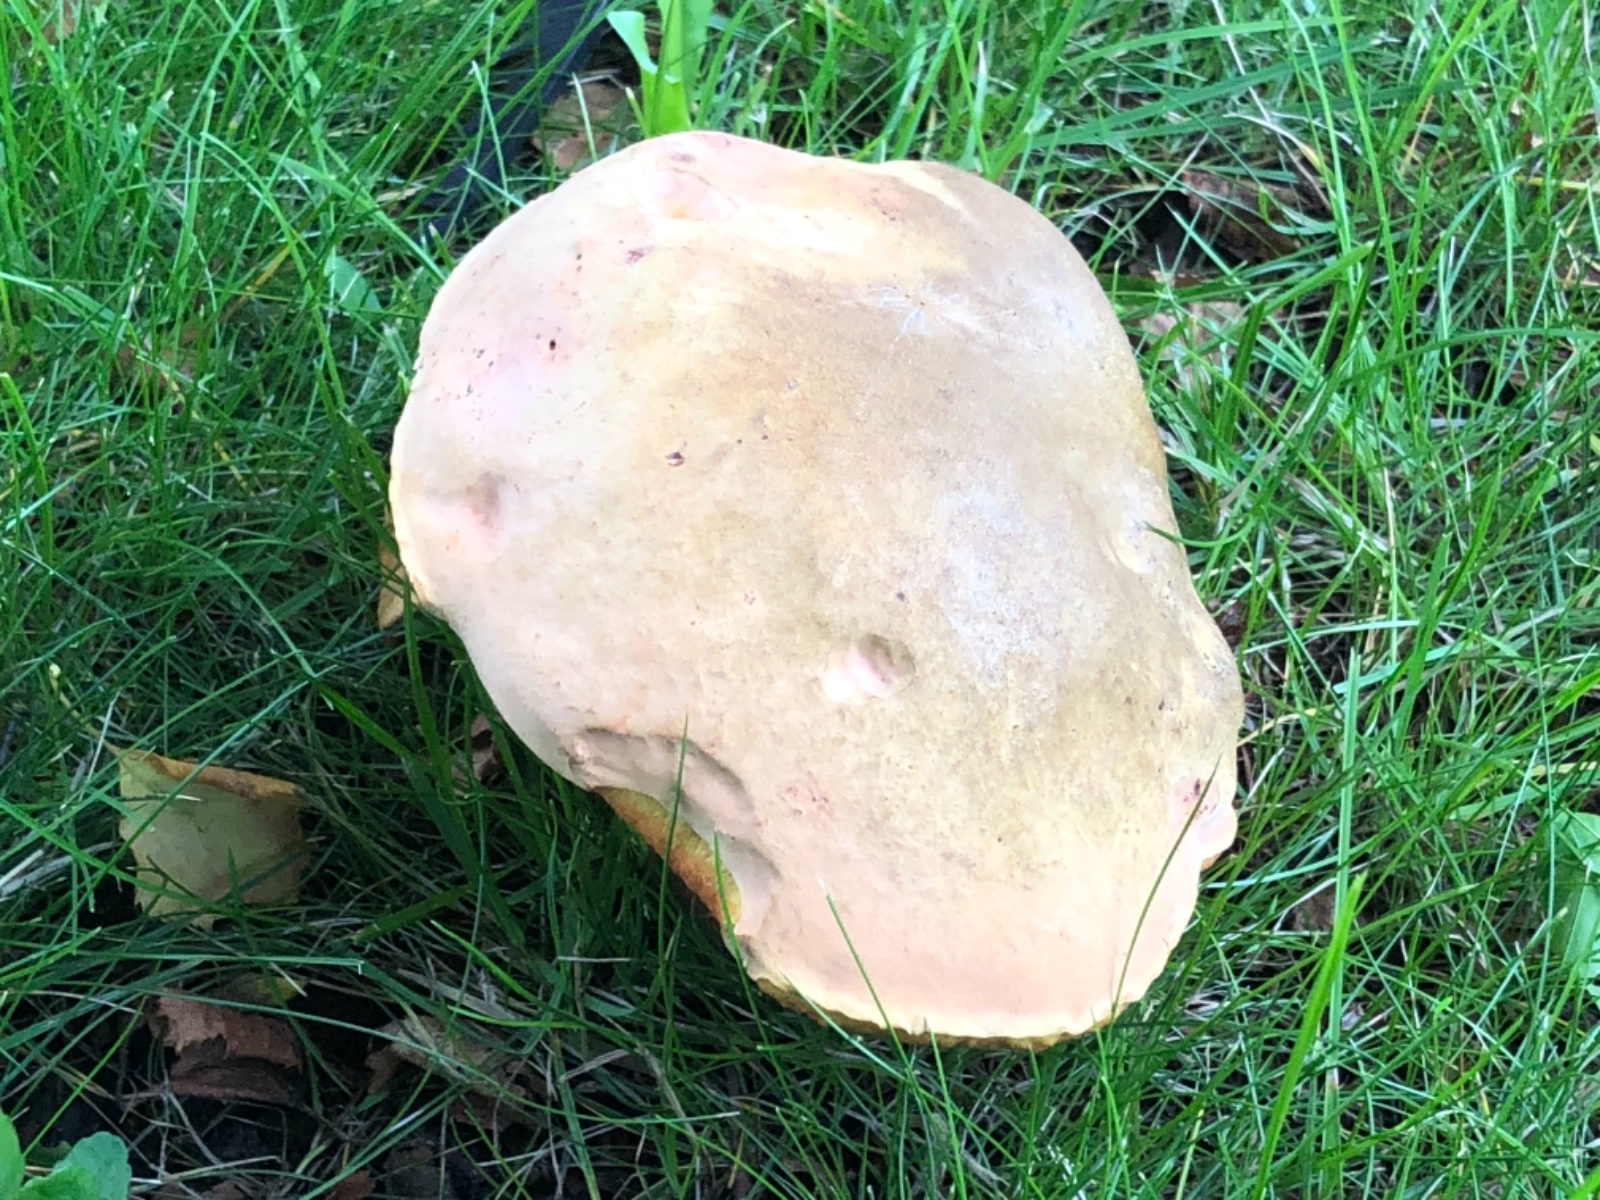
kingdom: Fungi
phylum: Basidiomycota
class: Agaricomycetes
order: Boletales
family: Boletaceae
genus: Suillellus
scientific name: Suillellus luridus
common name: netstokket indigorørhat
